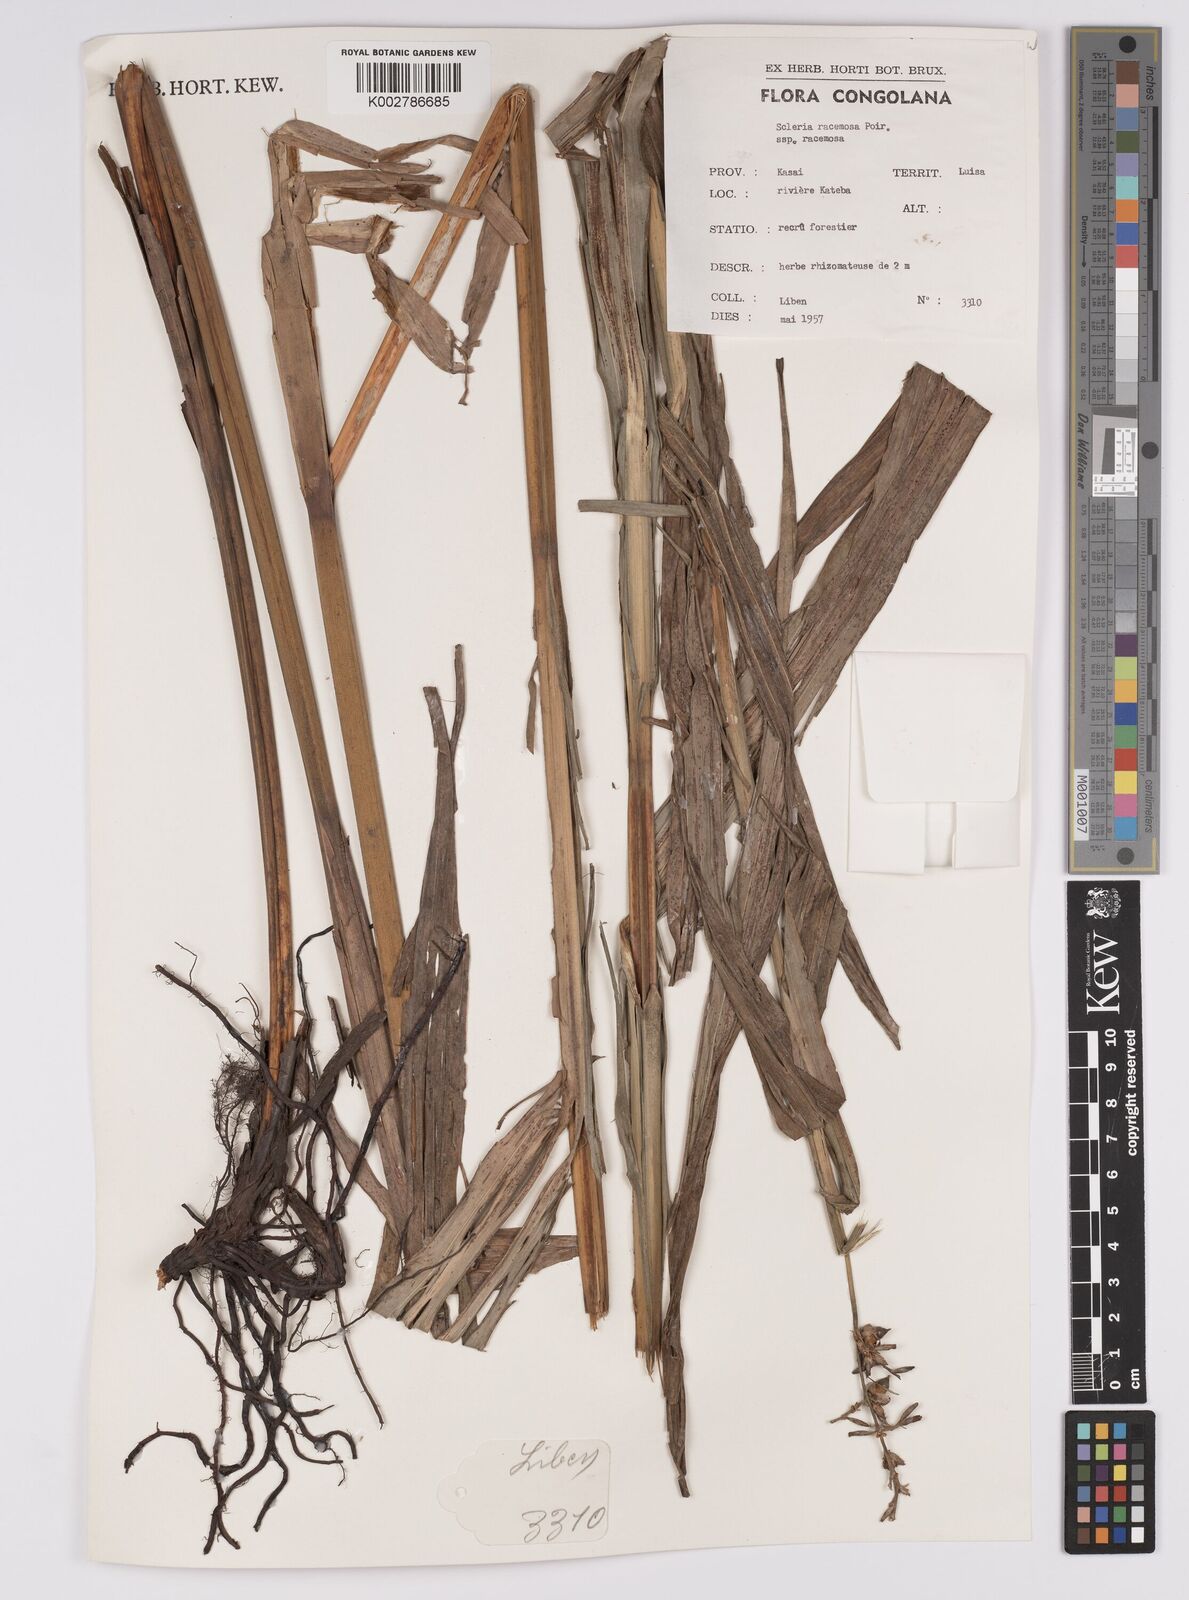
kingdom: Plantae
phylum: Tracheophyta
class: Liliopsida
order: Poales
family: Cyperaceae
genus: Scleria
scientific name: Scleria racemosa
